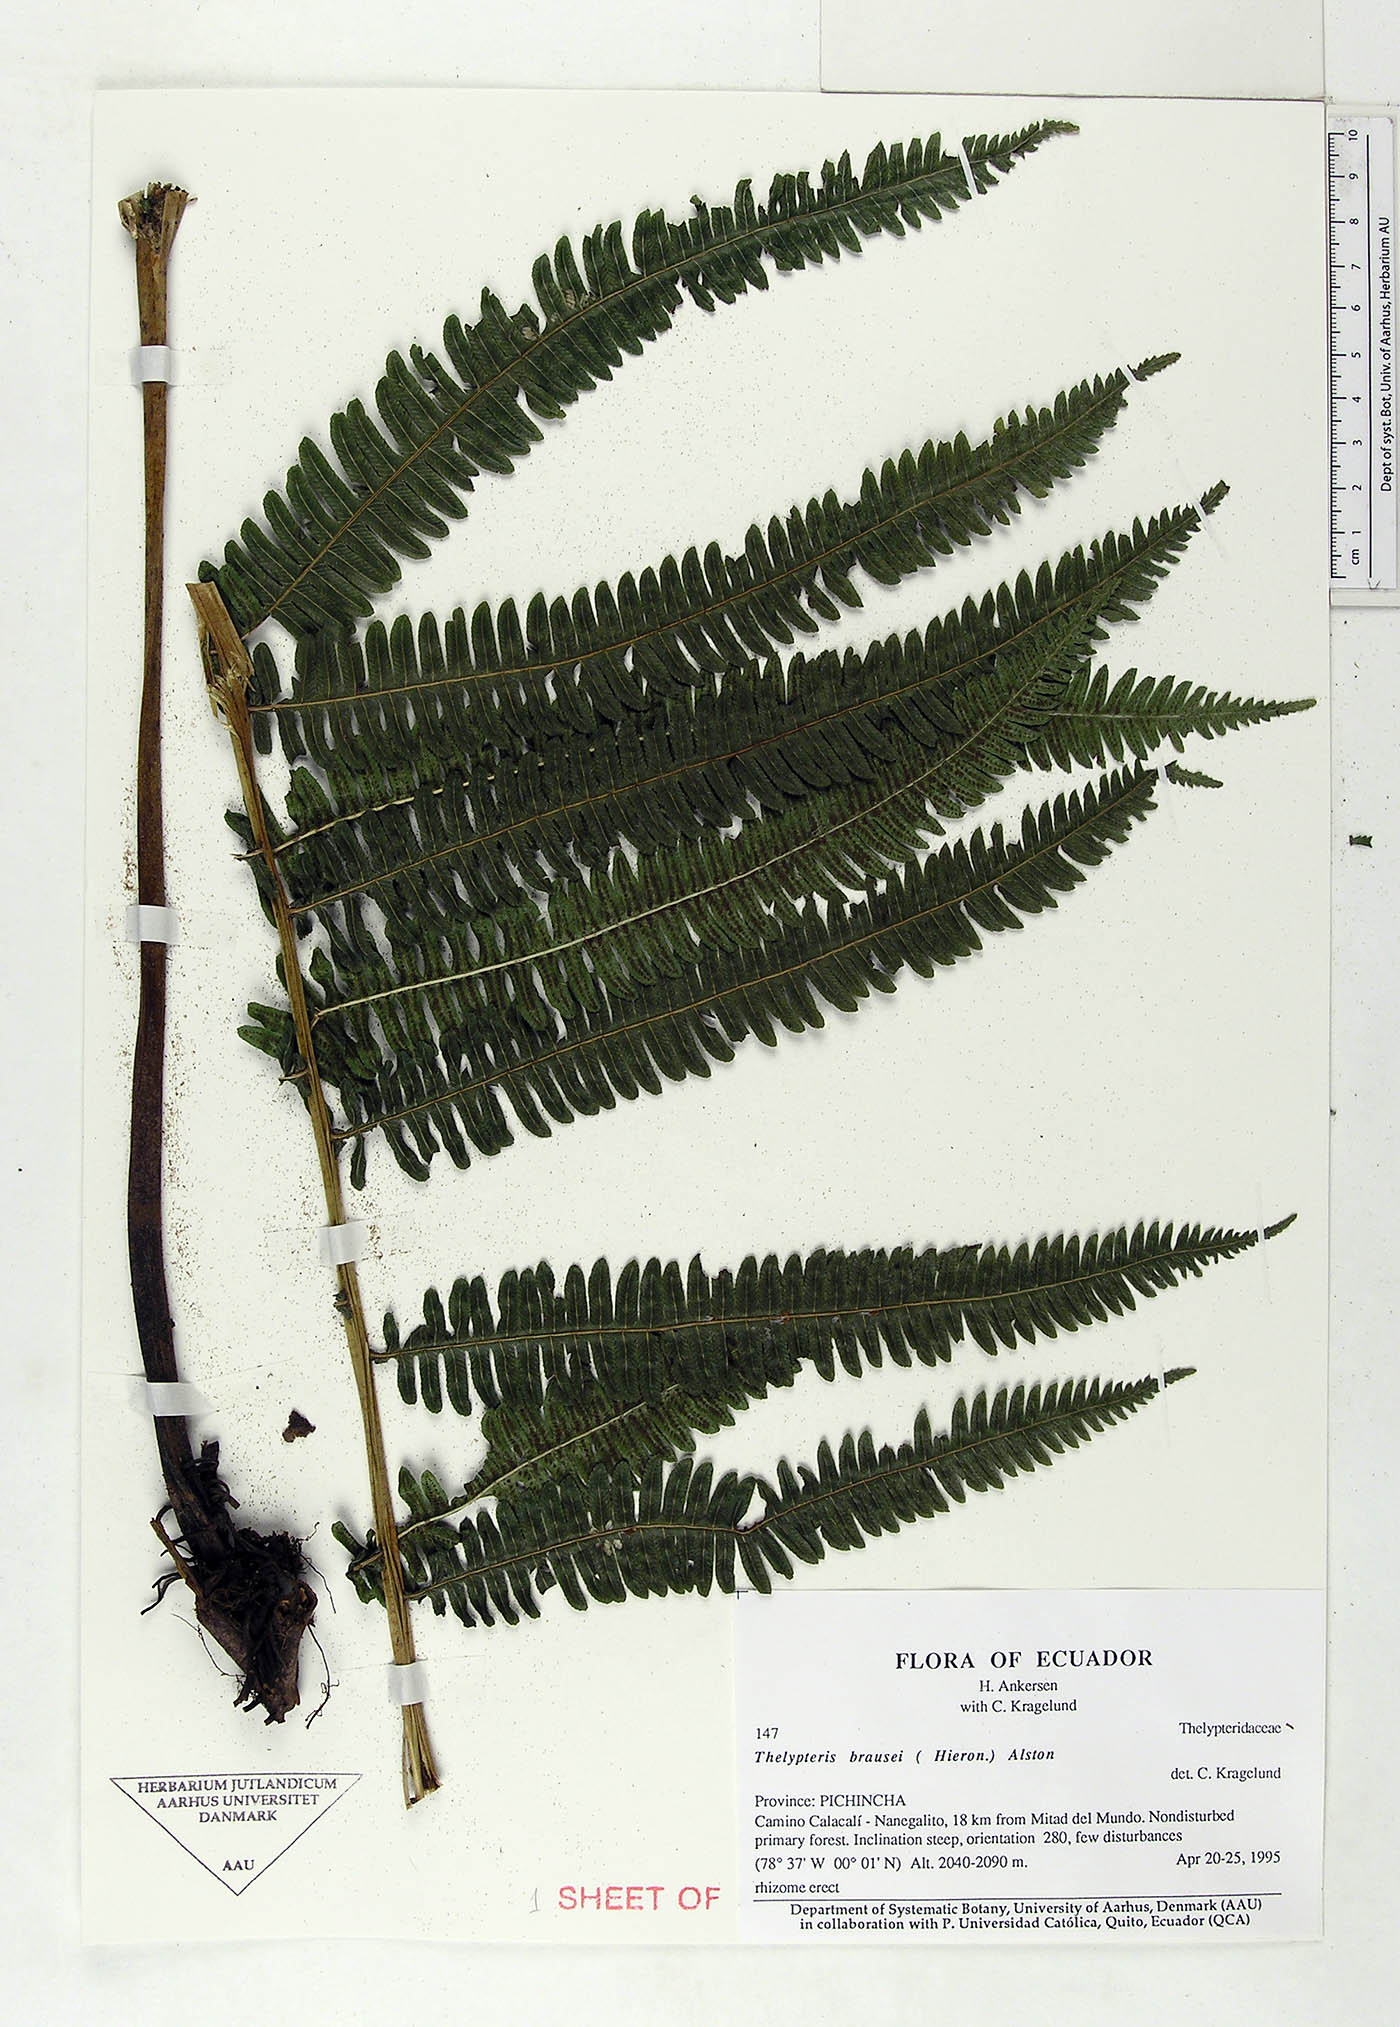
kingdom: Plantae
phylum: Tracheophyta
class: Polypodiopsida
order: Polypodiales
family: Thelypteridaceae
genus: Amauropelta
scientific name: Amauropelta brausei
